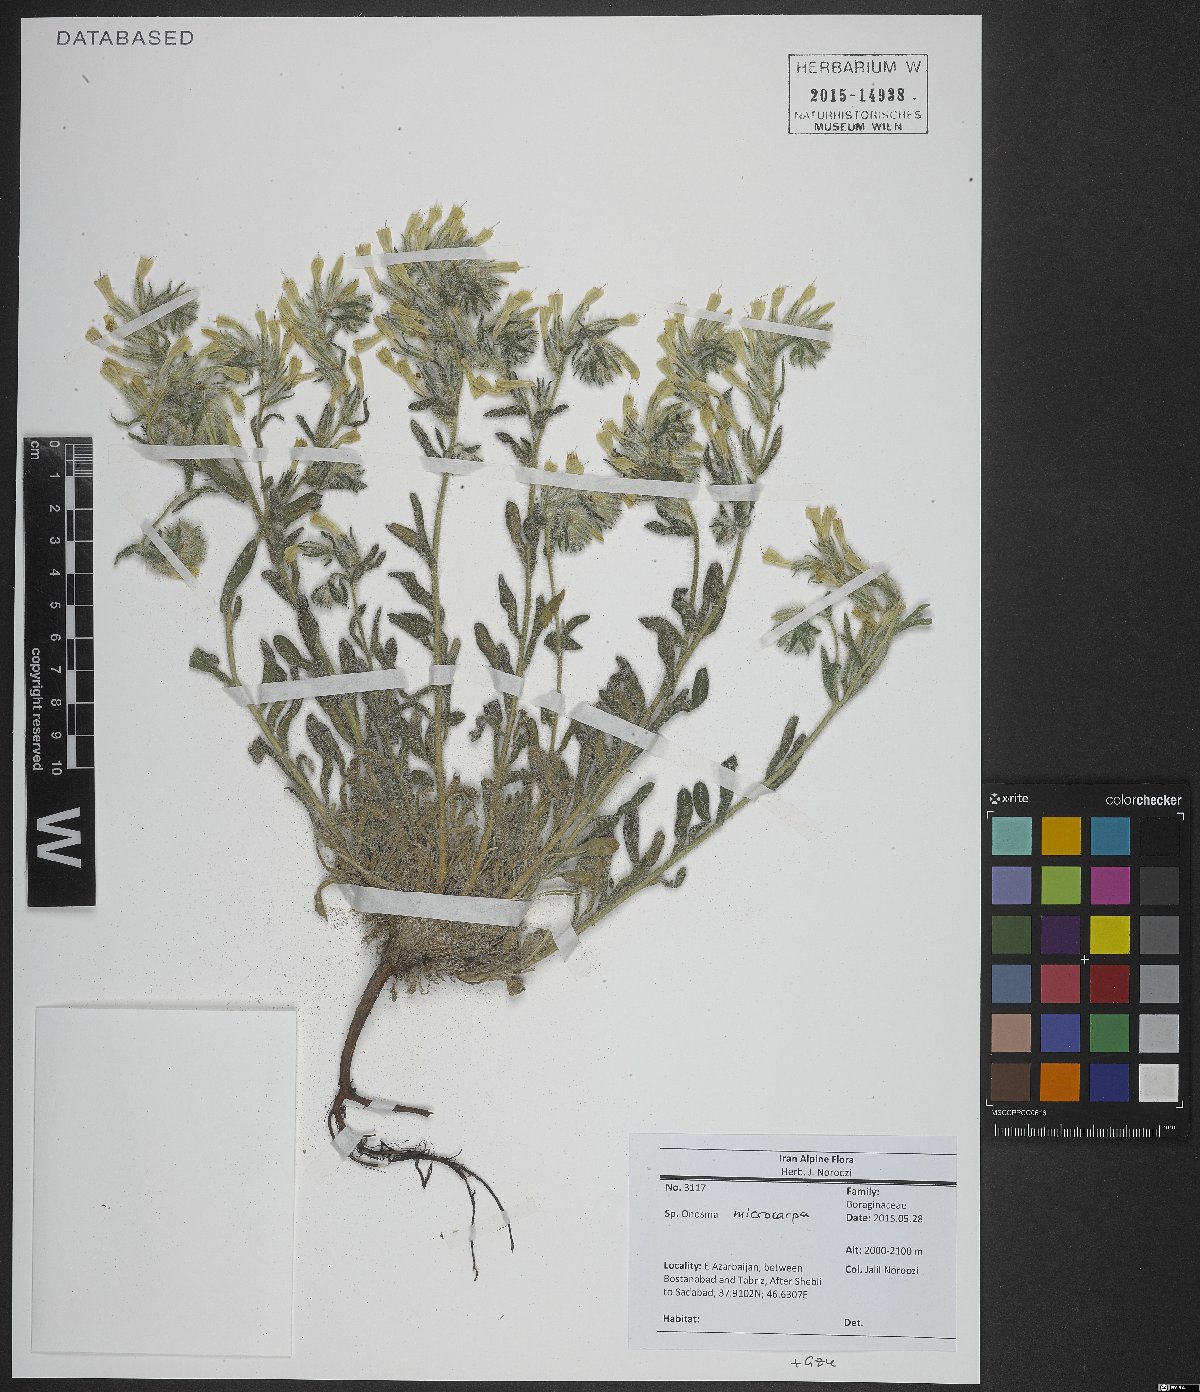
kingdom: Plantae
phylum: Tracheophyta
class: Magnoliopsida
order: Boraginales
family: Boraginaceae
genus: Onosma
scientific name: Onosma microcarpa
